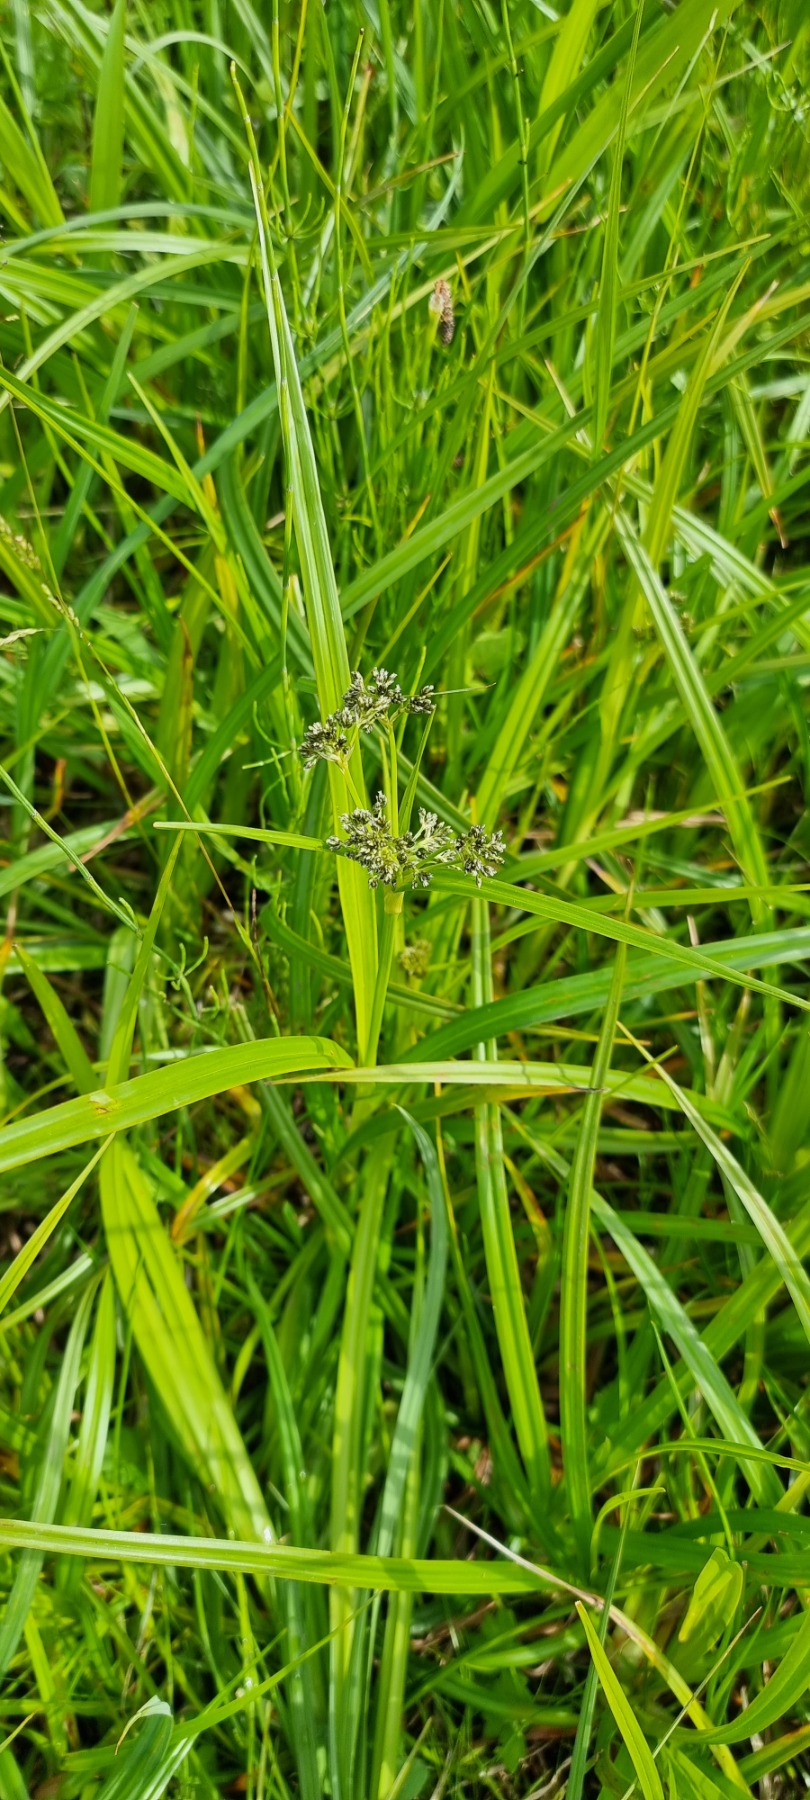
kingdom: Plantae
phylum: Tracheophyta
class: Liliopsida
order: Poales
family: Cyperaceae
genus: Scirpus
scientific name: Scirpus sylvaticus
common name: Skov-kogleaks
